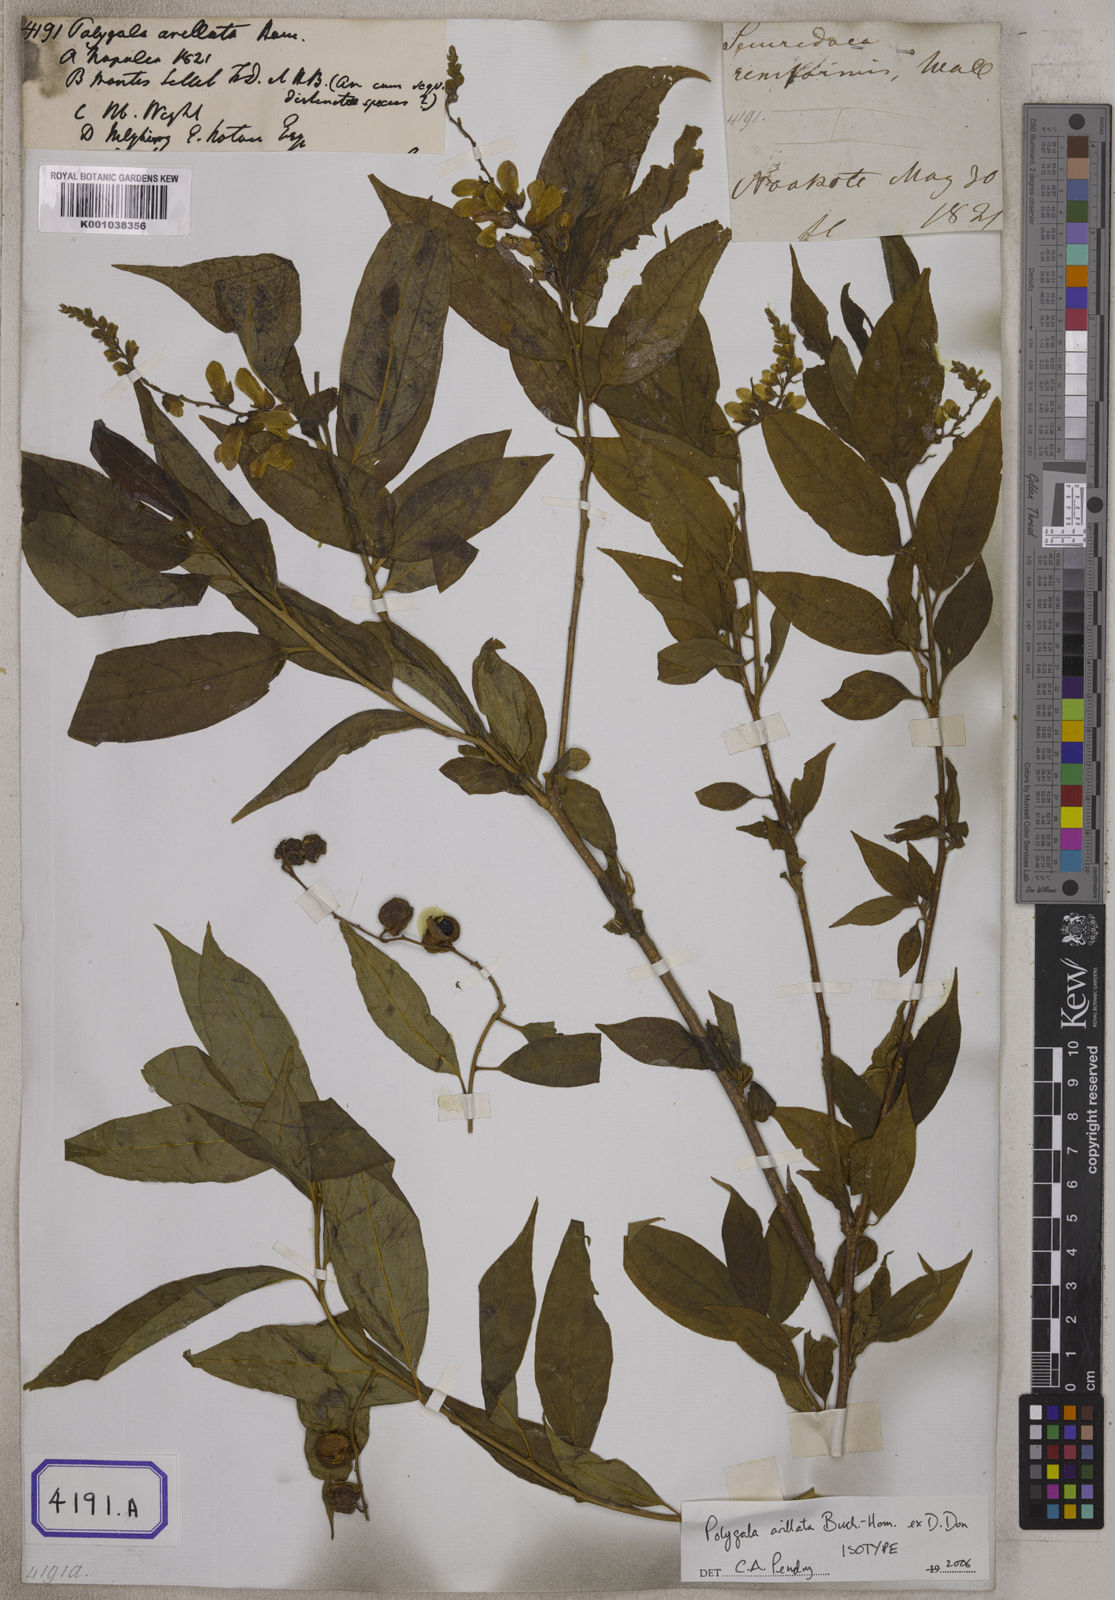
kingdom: Plantae
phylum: Tracheophyta
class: Magnoliopsida
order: Fabales
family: Polygalaceae
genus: Polygala
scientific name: Polygala arillata
